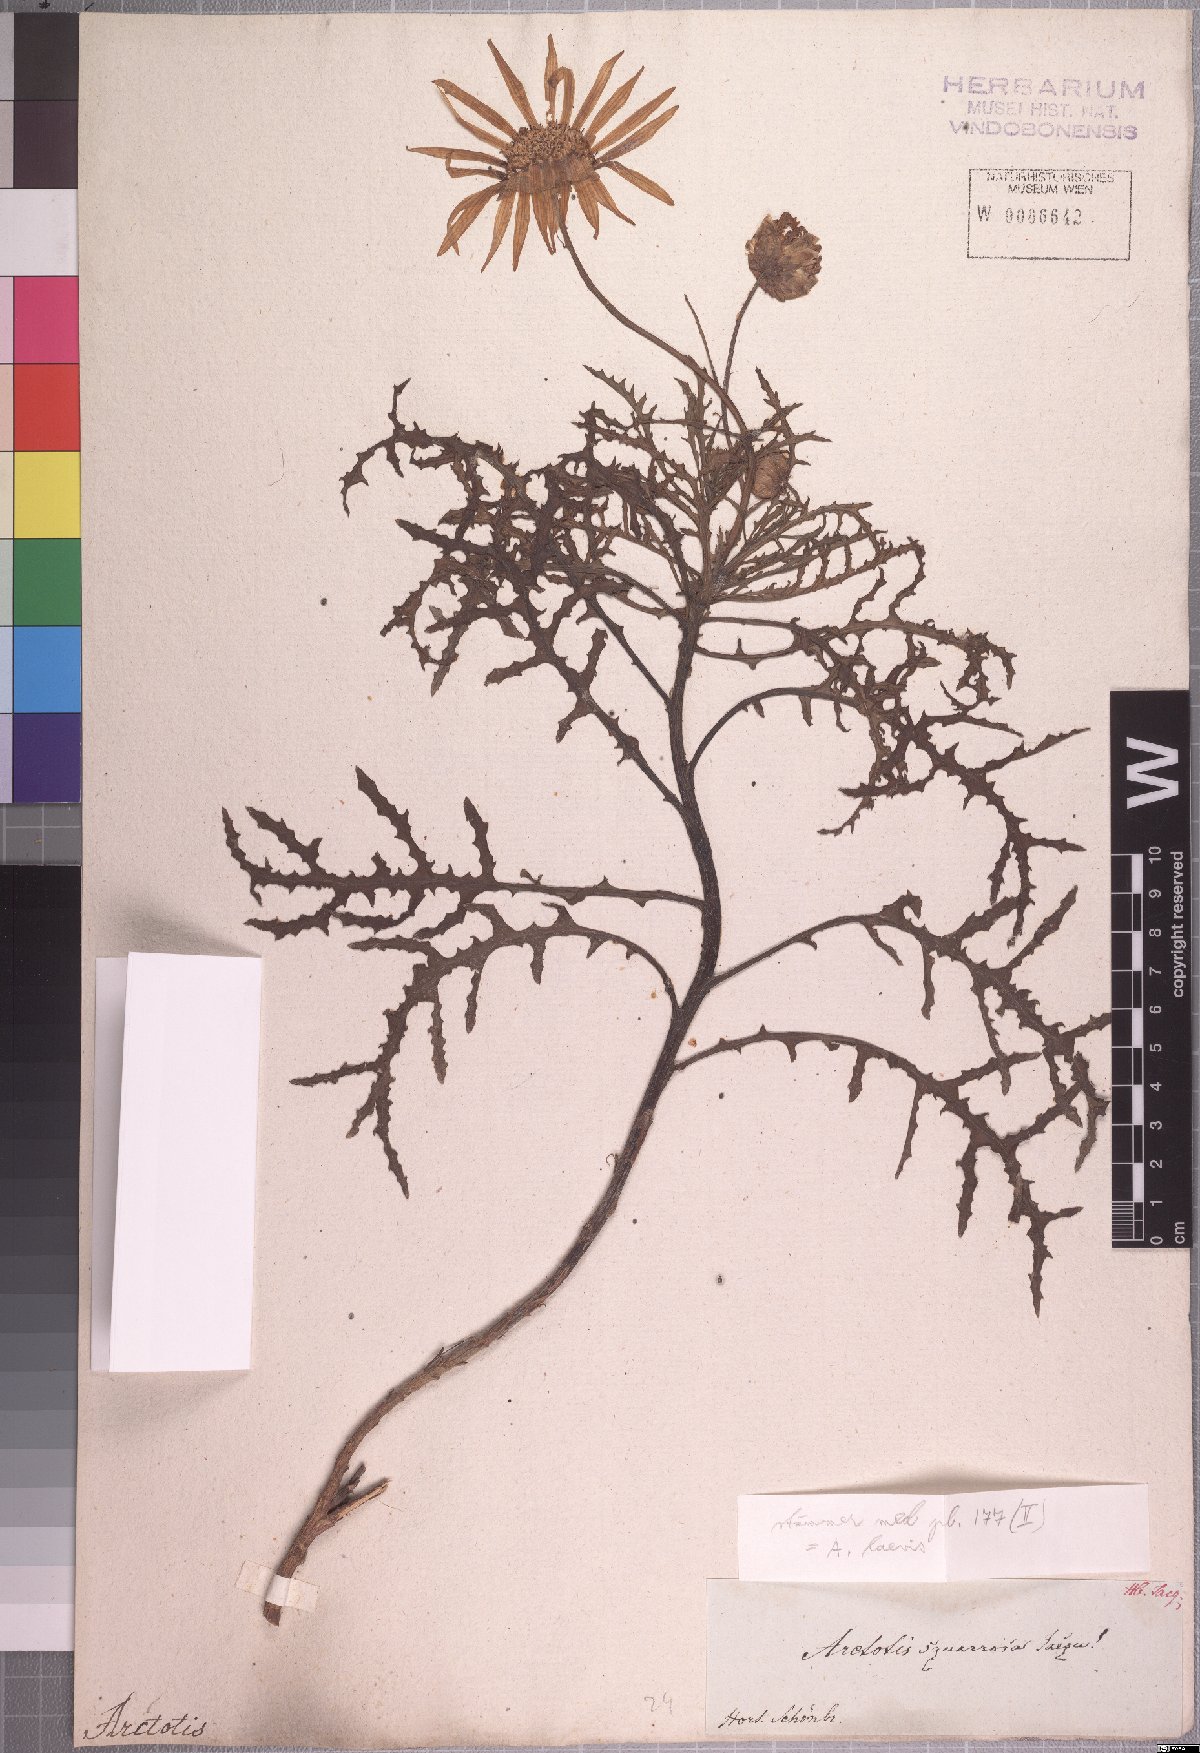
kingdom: Plantae
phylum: Tracheophyta
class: Magnoliopsida
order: Asterales
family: Asteraceae
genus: Arctotis
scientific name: Arctotis laciniata
